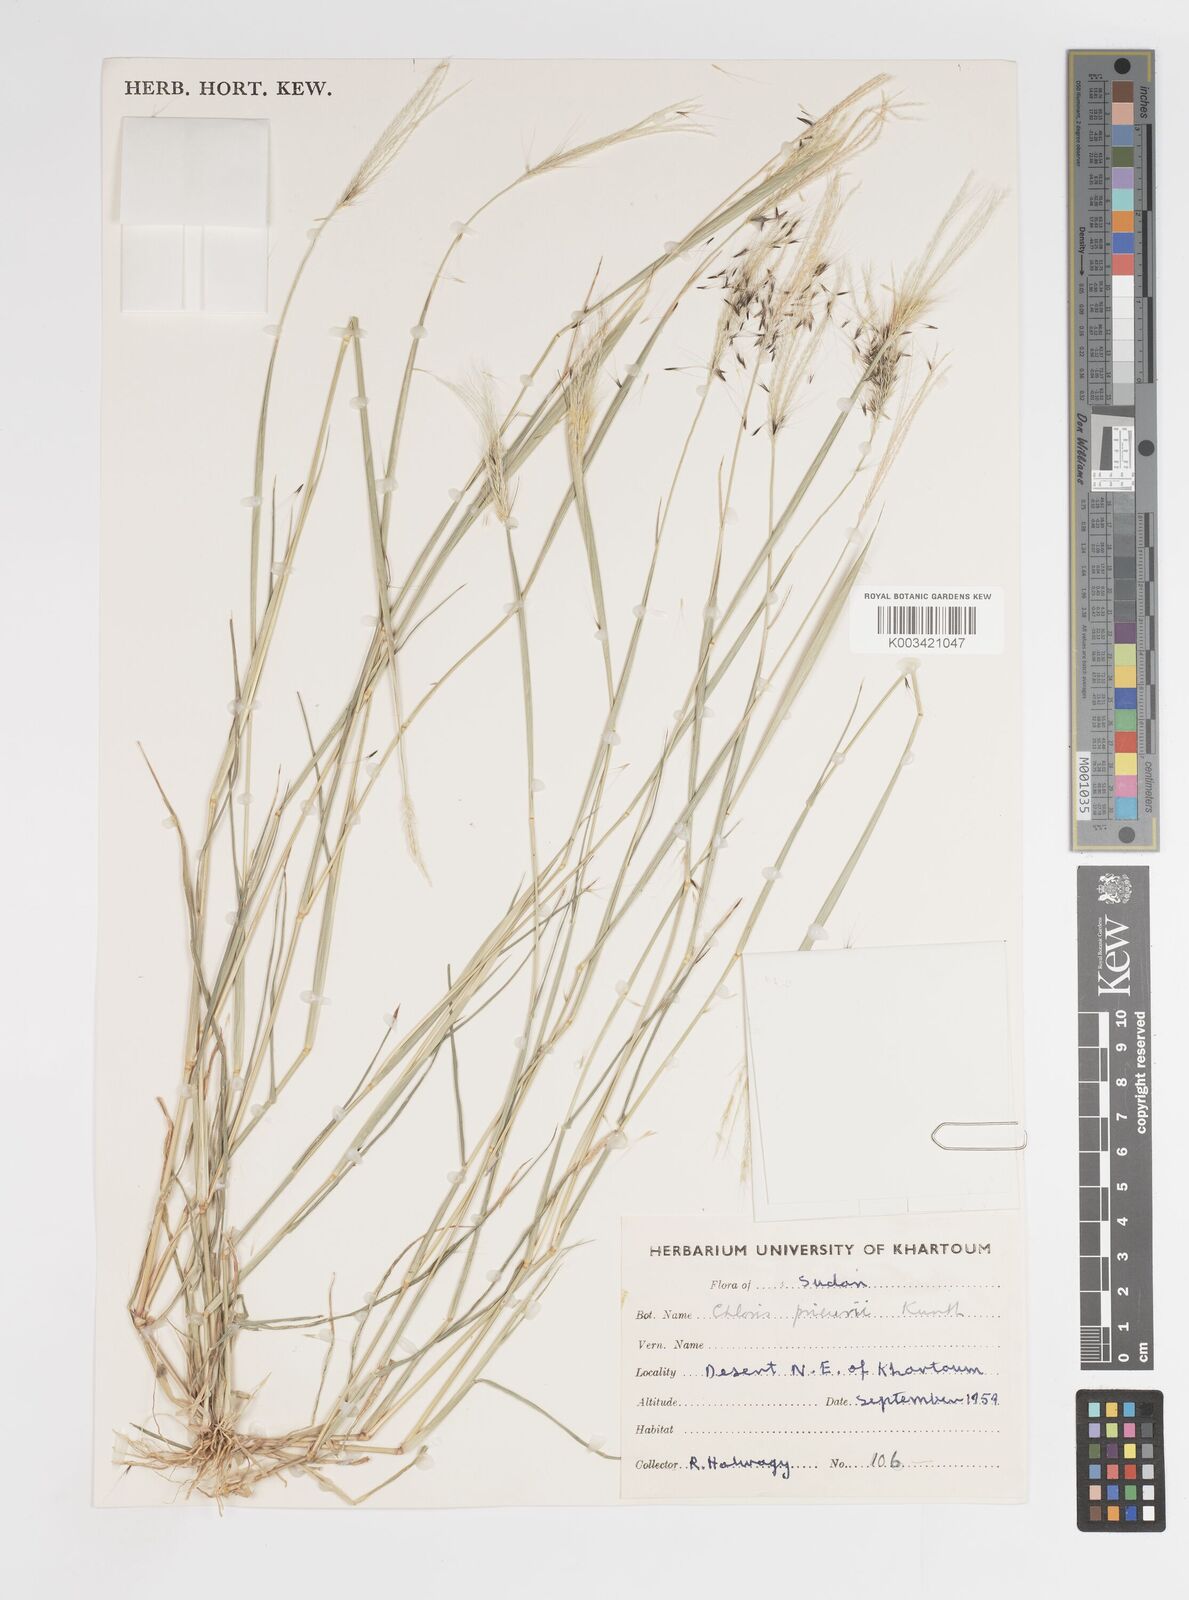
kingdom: Plantae
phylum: Tracheophyta
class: Liliopsida
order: Poales
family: Poaceae
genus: Enteropogon
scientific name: Enteropogon prieurii
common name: Prieur's umbrellagrass
